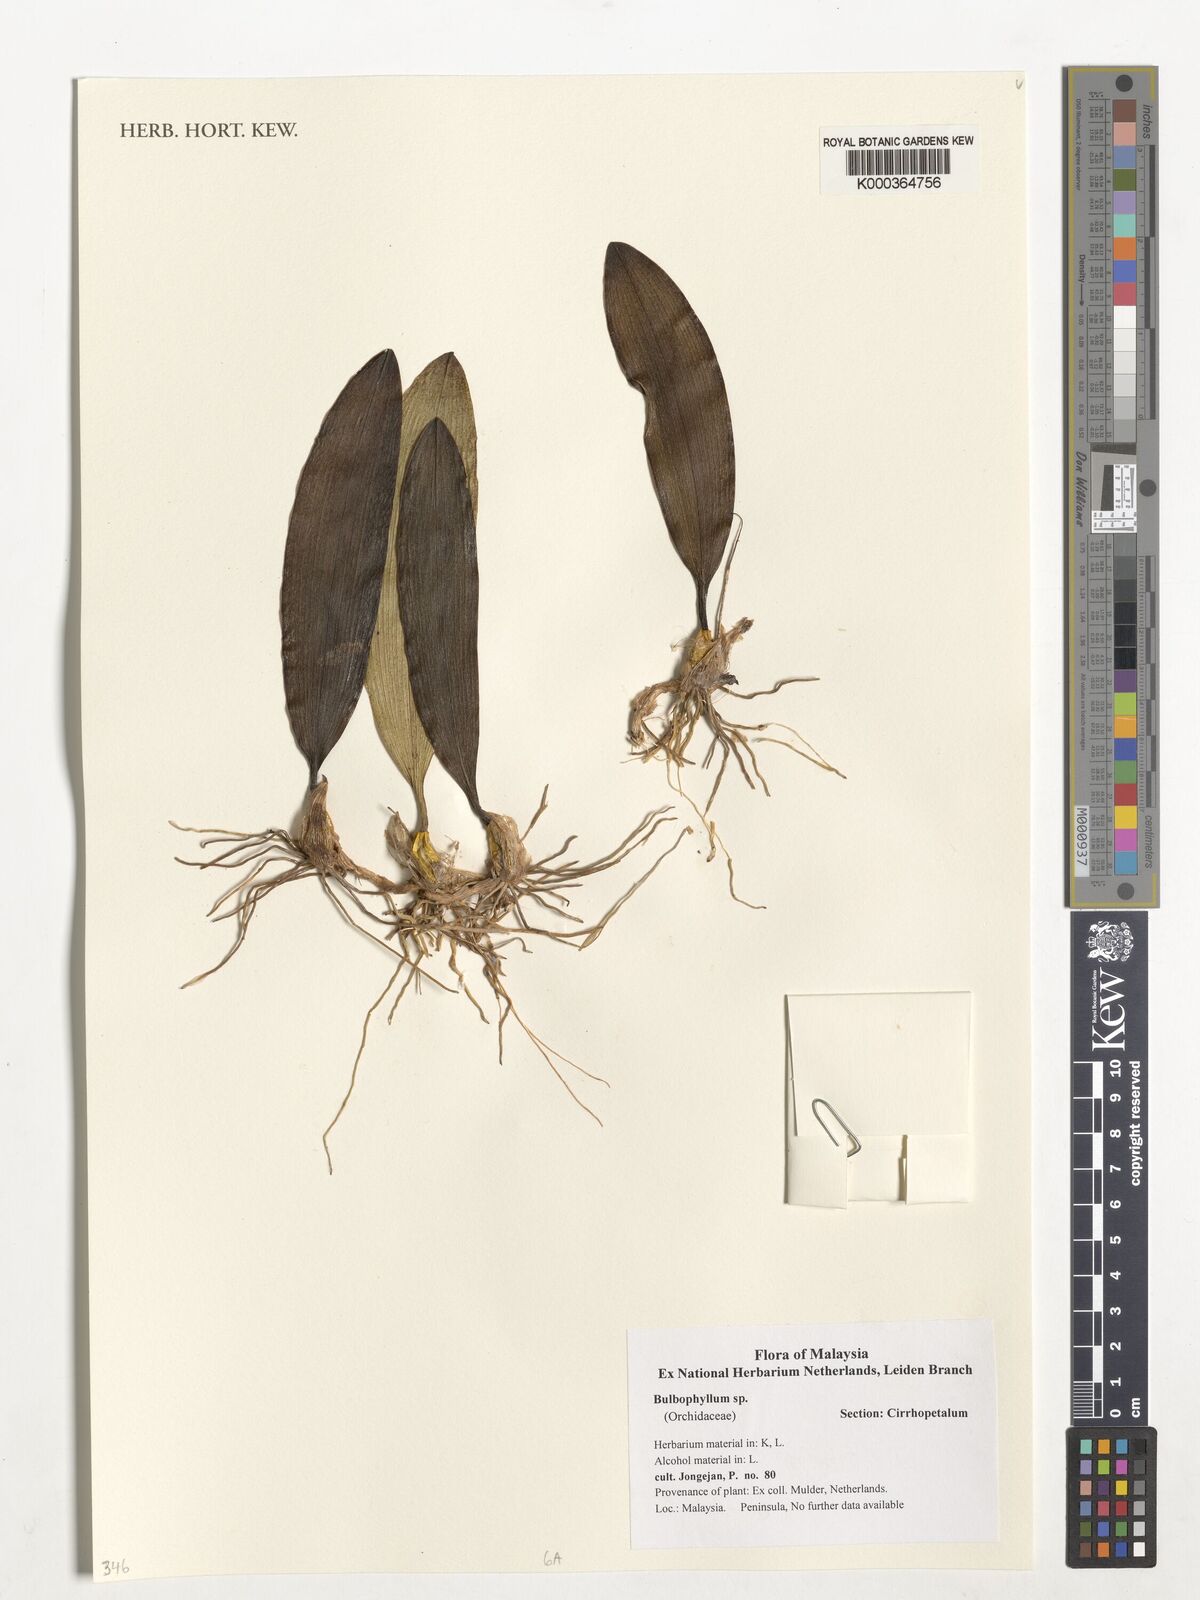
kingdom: Plantae
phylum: Tracheophyta
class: Liliopsida
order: Asparagales
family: Orchidaceae
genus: Bulbophyllum
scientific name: Bulbophyllum
